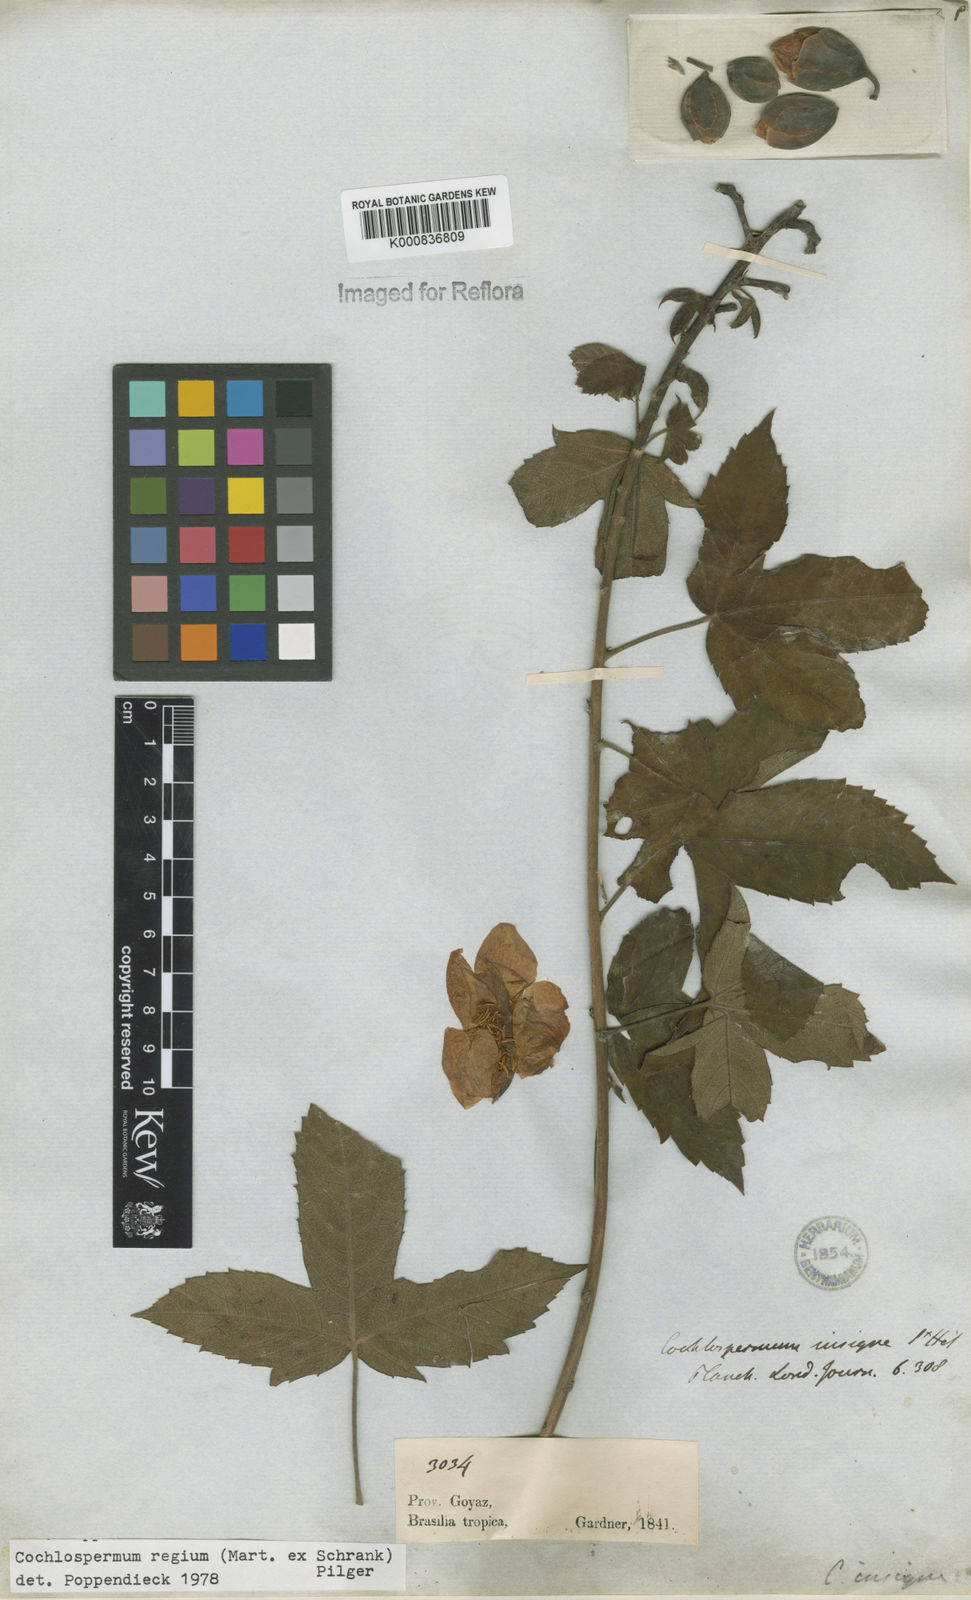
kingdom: Plantae
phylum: Tracheophyta
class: Magnoliopsida
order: Malvales
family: Cochlospermaceae
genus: Cochlospermum
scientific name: Cochlospermum regium
